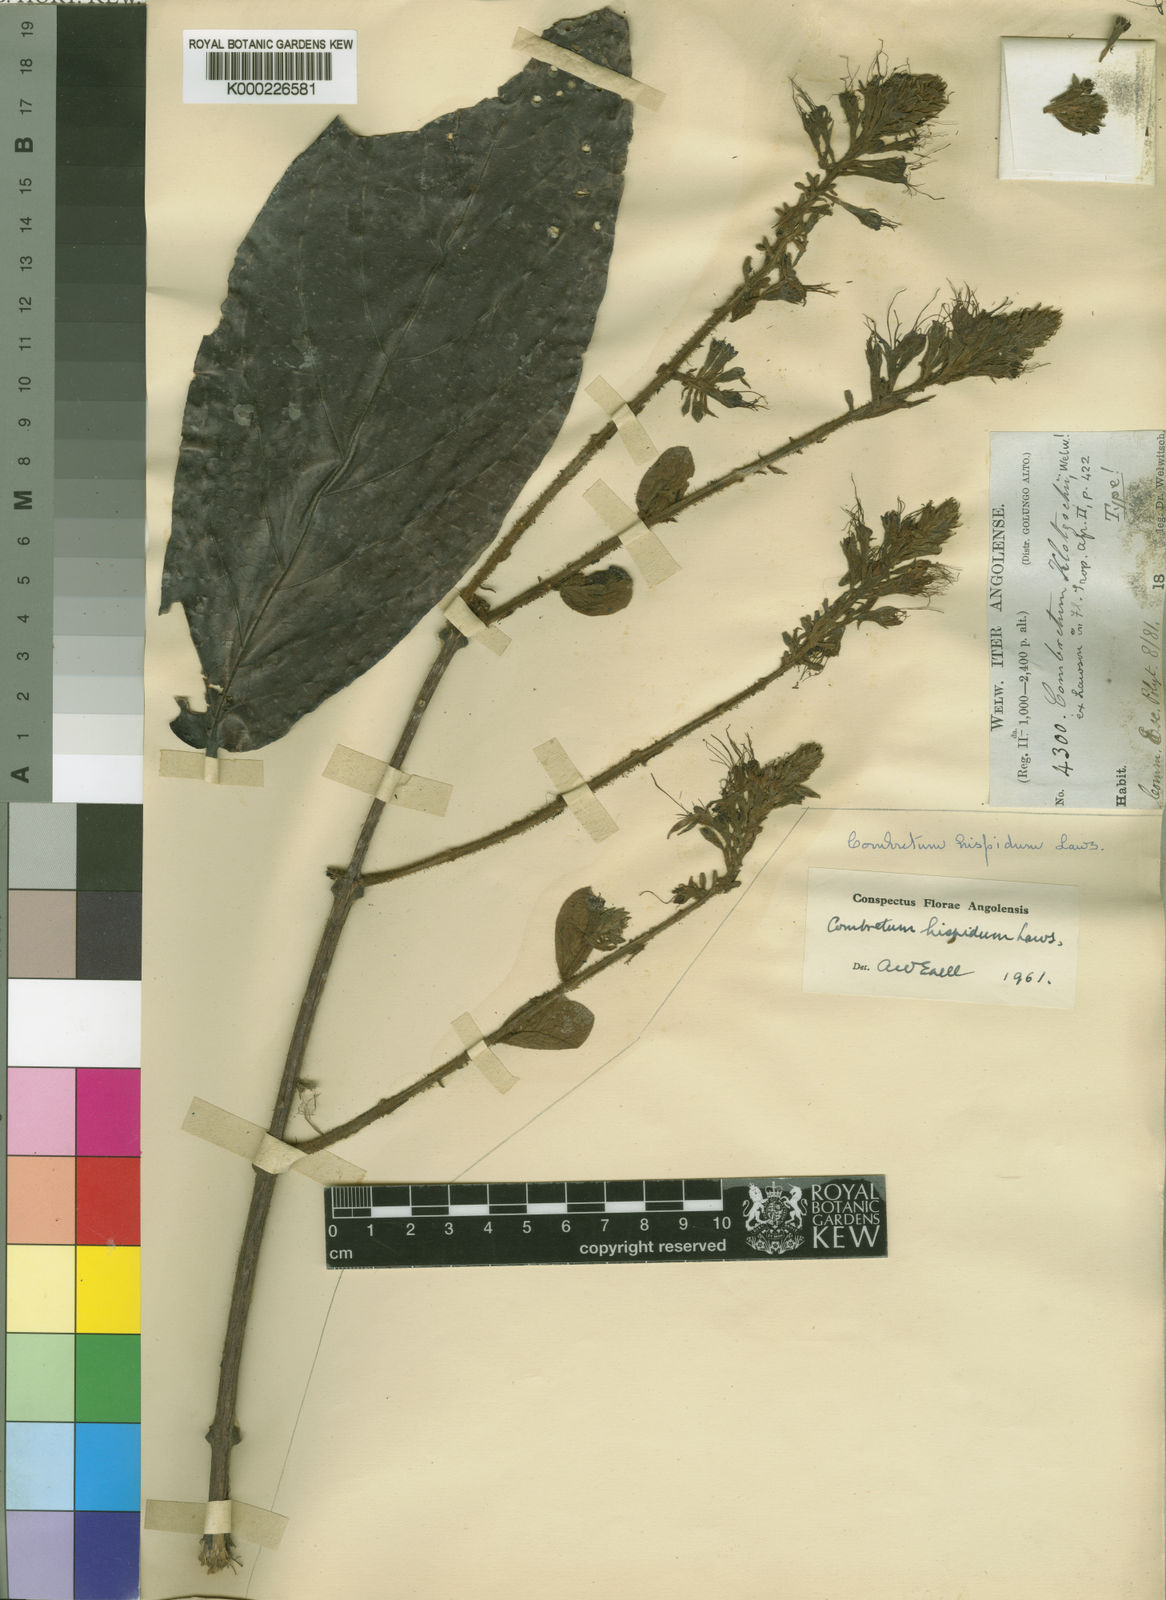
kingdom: Plantae
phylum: Tracheophyta
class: Magnoliopsida
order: Myrtales
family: Combretaceae
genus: Combretum
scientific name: Combretum comosum
